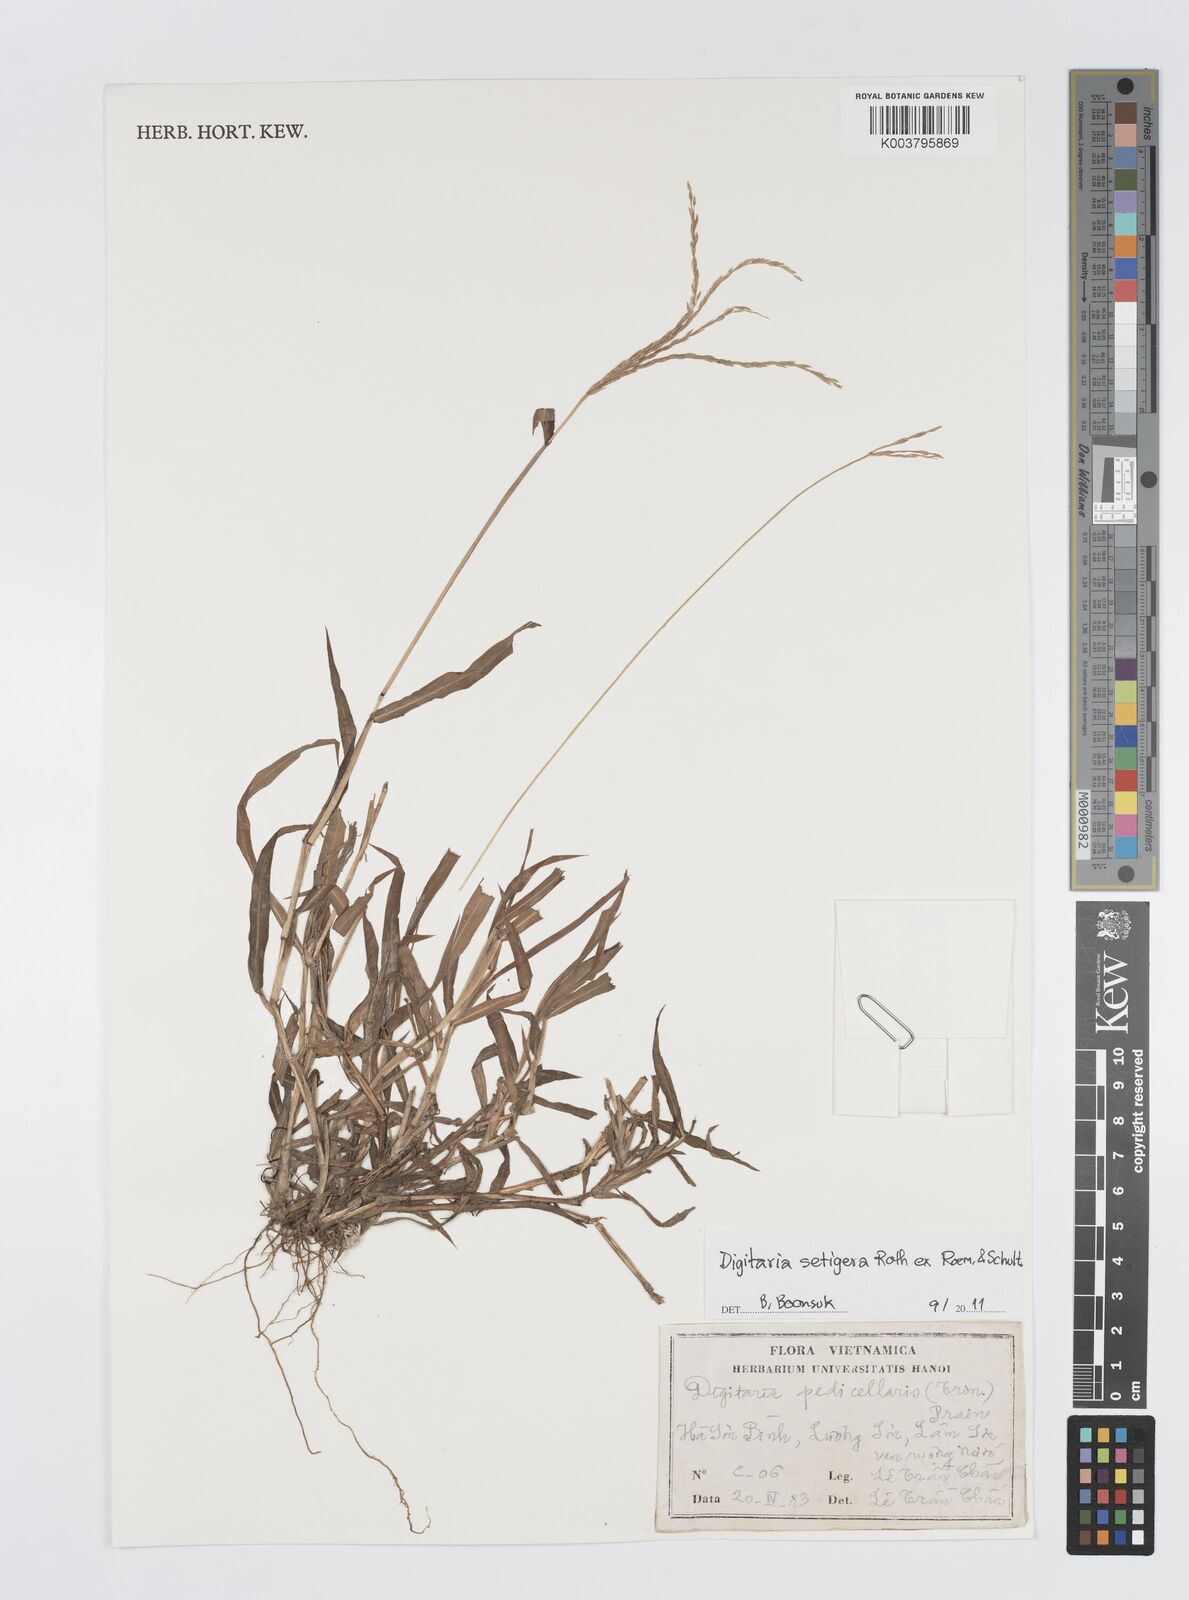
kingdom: Plantae
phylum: Tracheophyta
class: Liliopsida
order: Poales
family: Poaceae
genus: Digitaria
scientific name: Digitaria setigera
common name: East indian crabgrass
